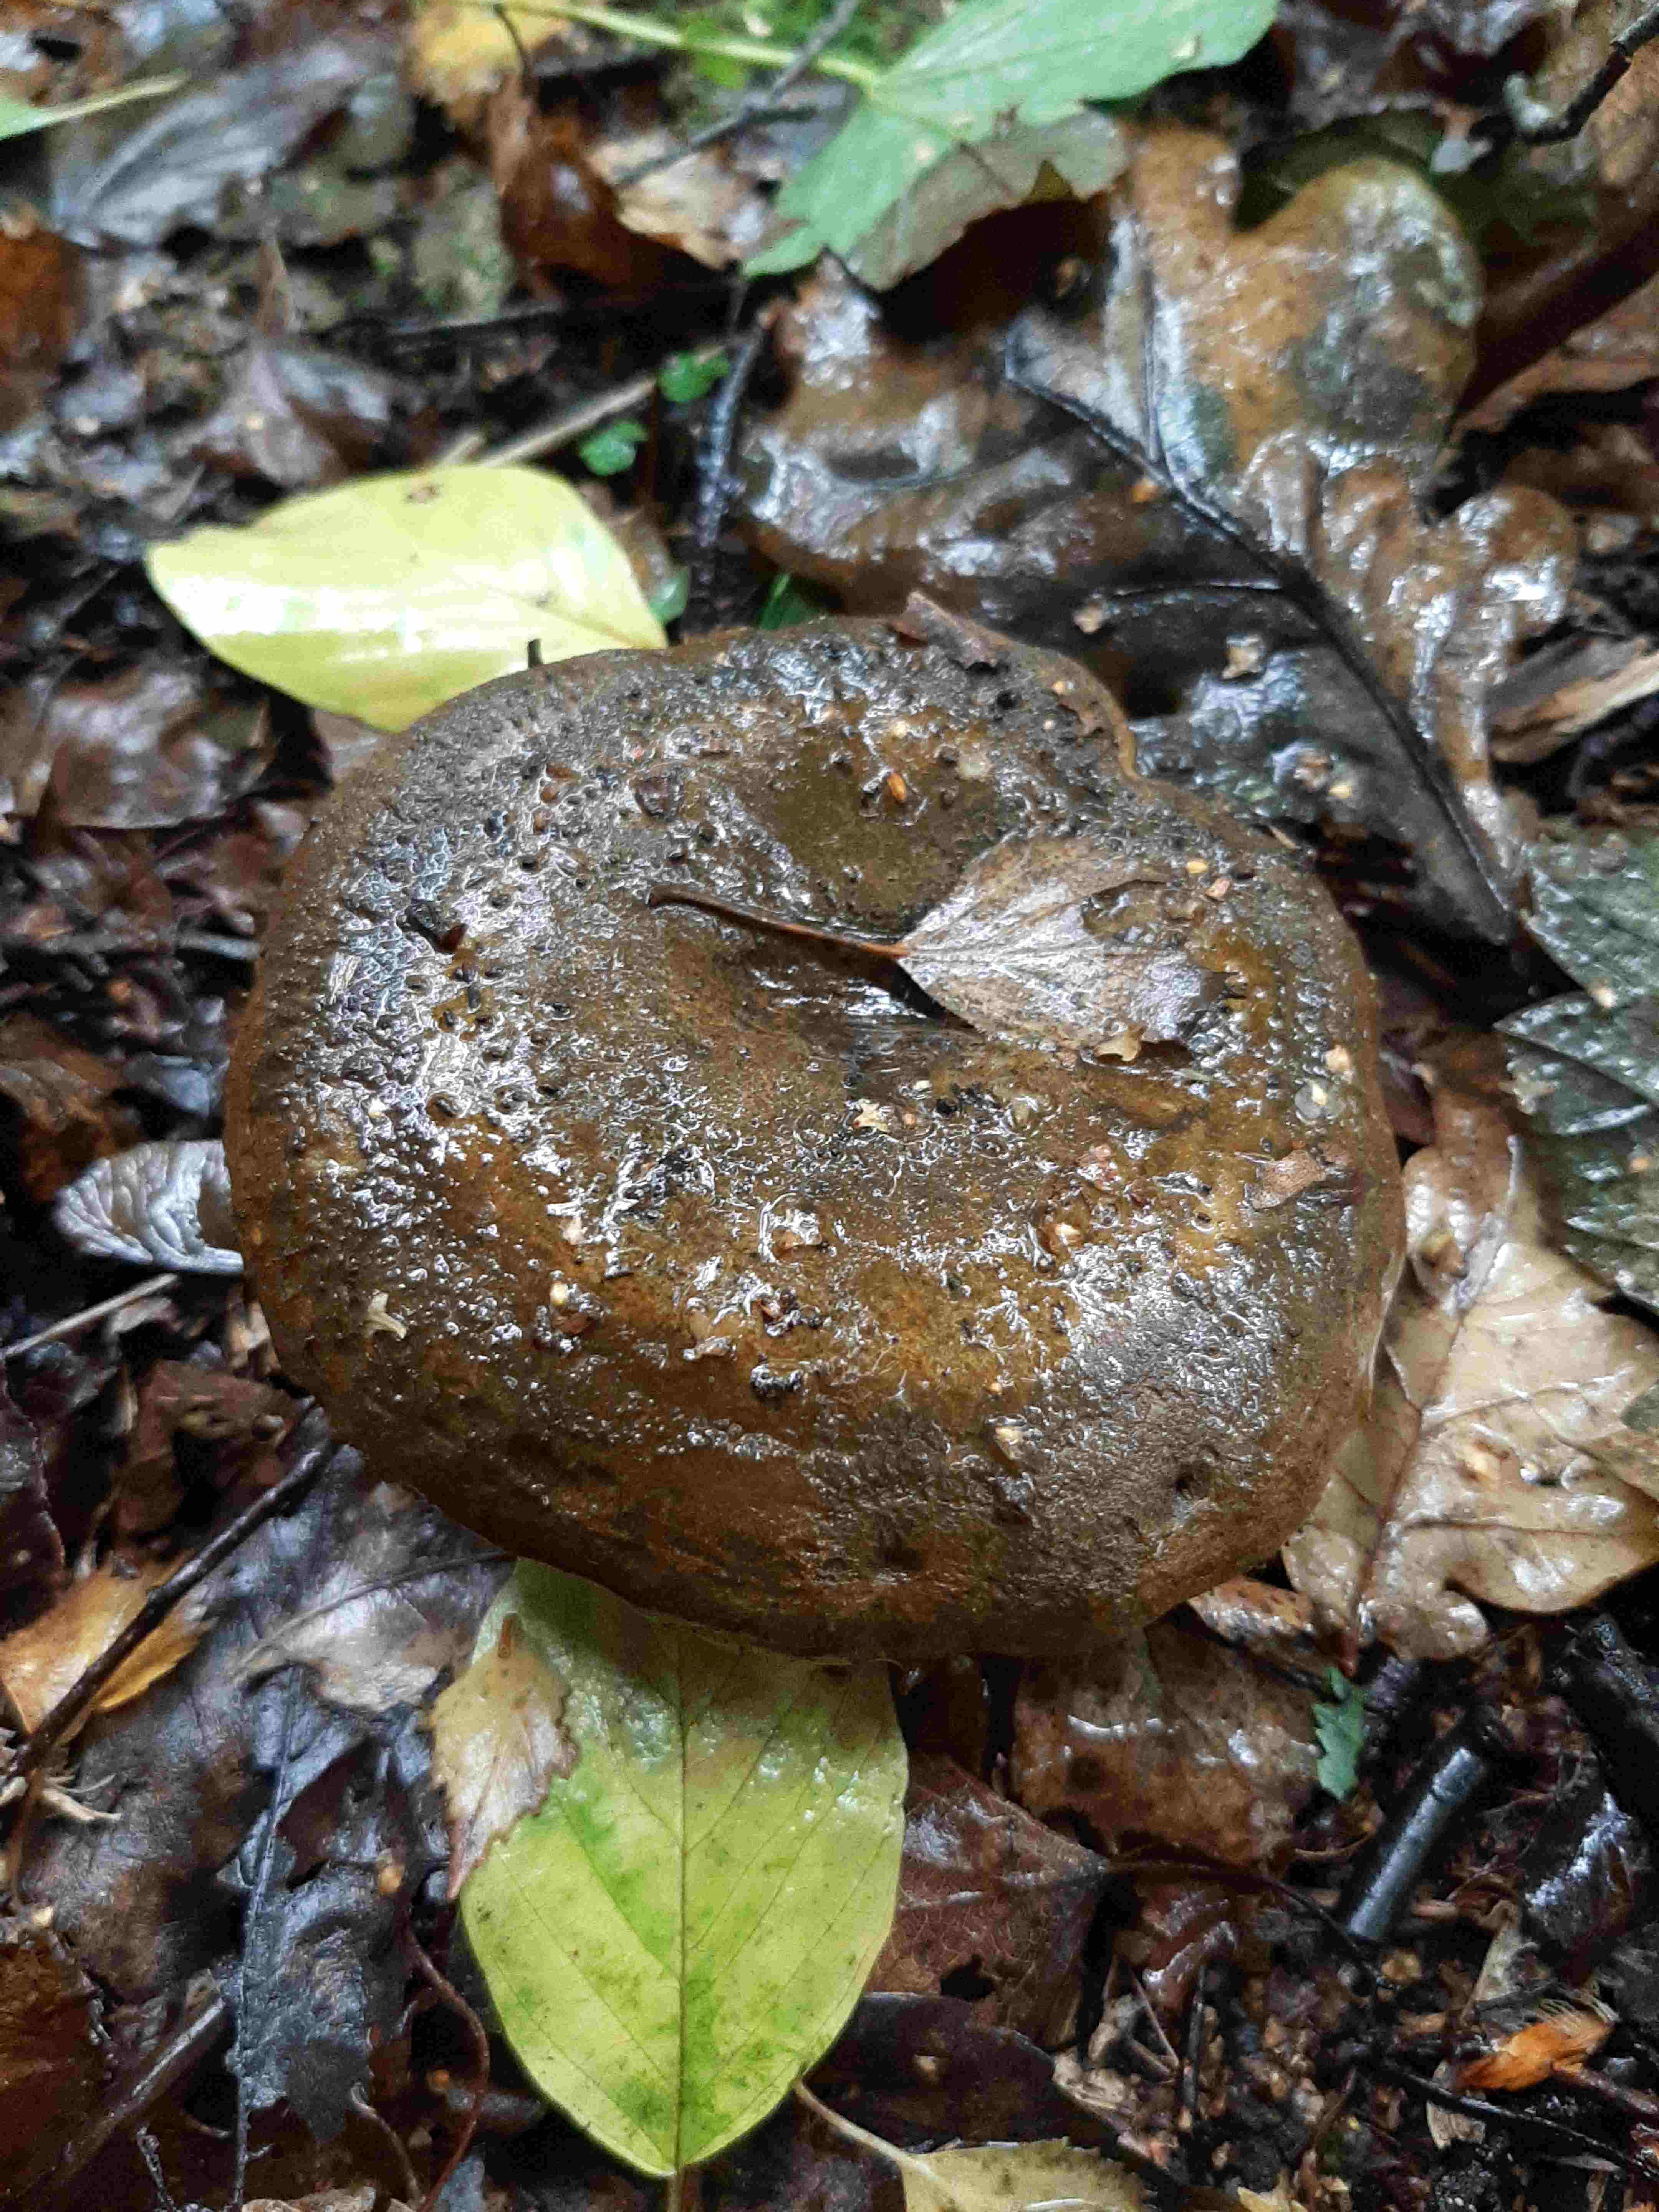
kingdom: Fungi
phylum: Basidiomycota
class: Agaricomycetes
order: Russulales
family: Russulaceae
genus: Lactarius
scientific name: Lactarius necator
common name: manddraber-mælkehat
